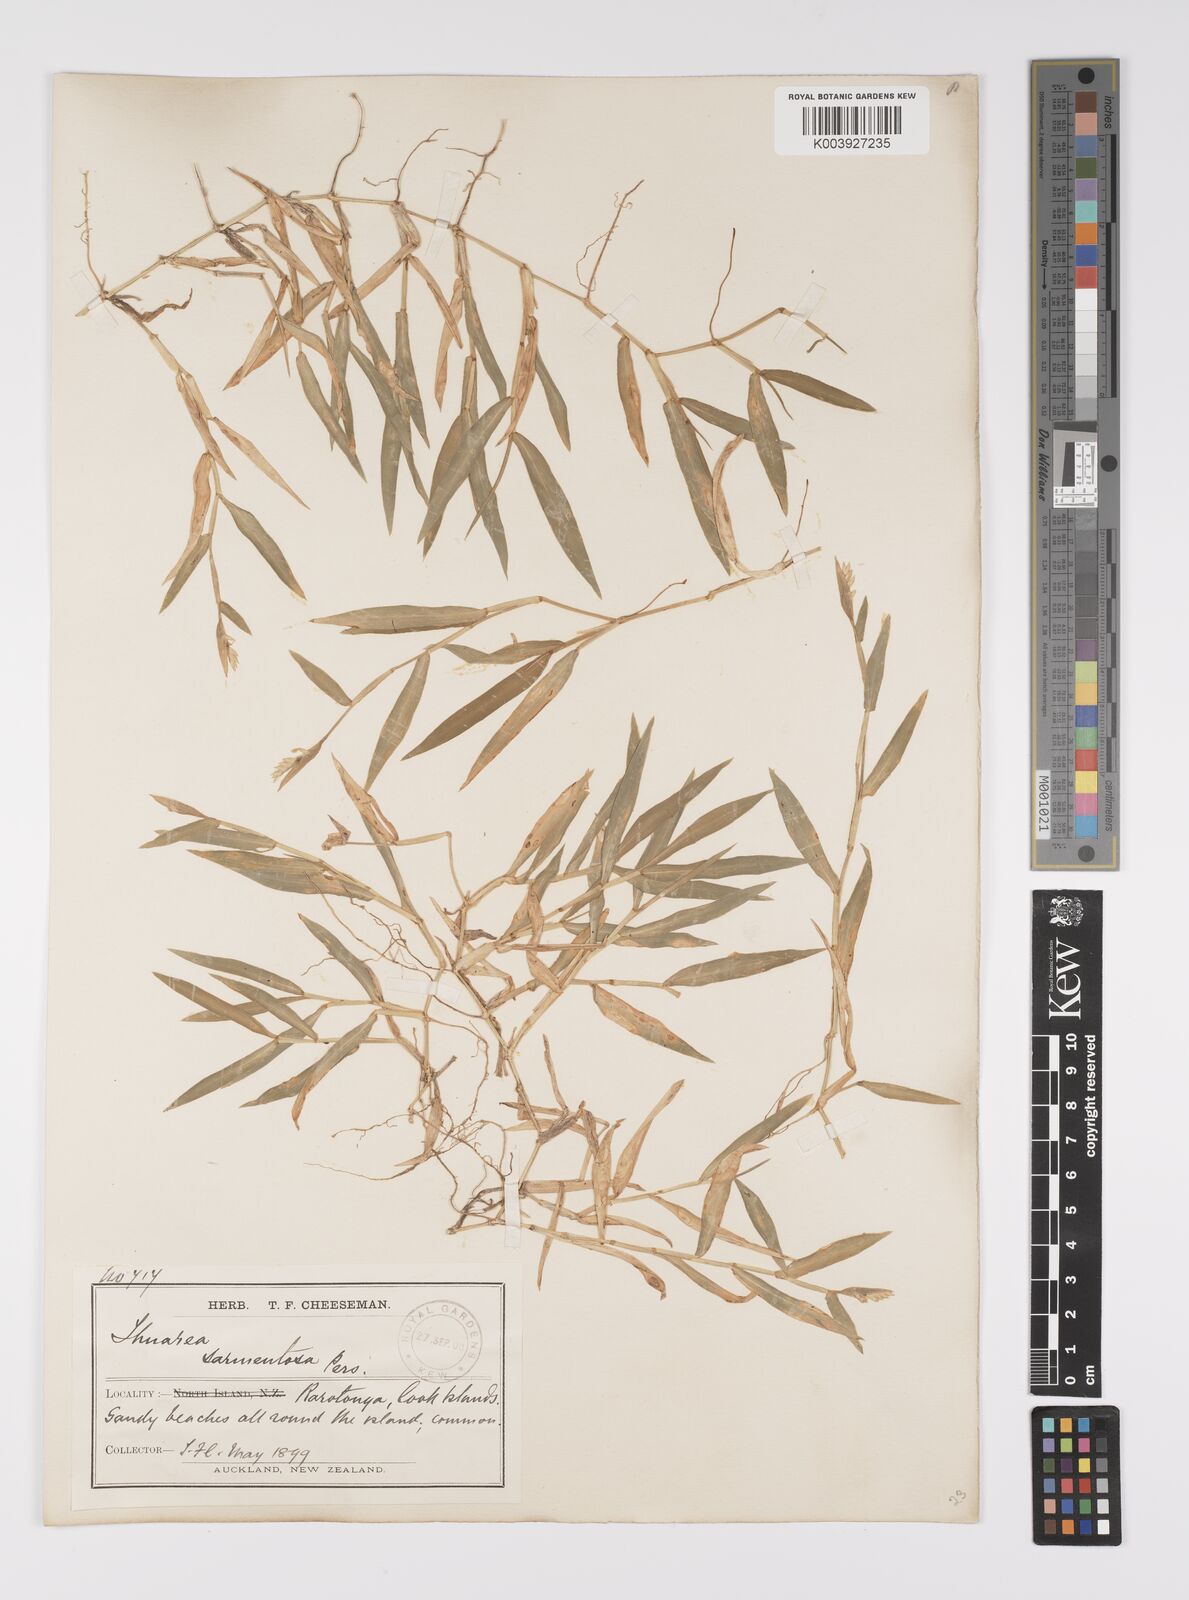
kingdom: Plantae
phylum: Tracheophyta
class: Liliopsida
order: Poales
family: Poaceae
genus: Thuarea
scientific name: Thuarea involuta
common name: Tropical beach grass
